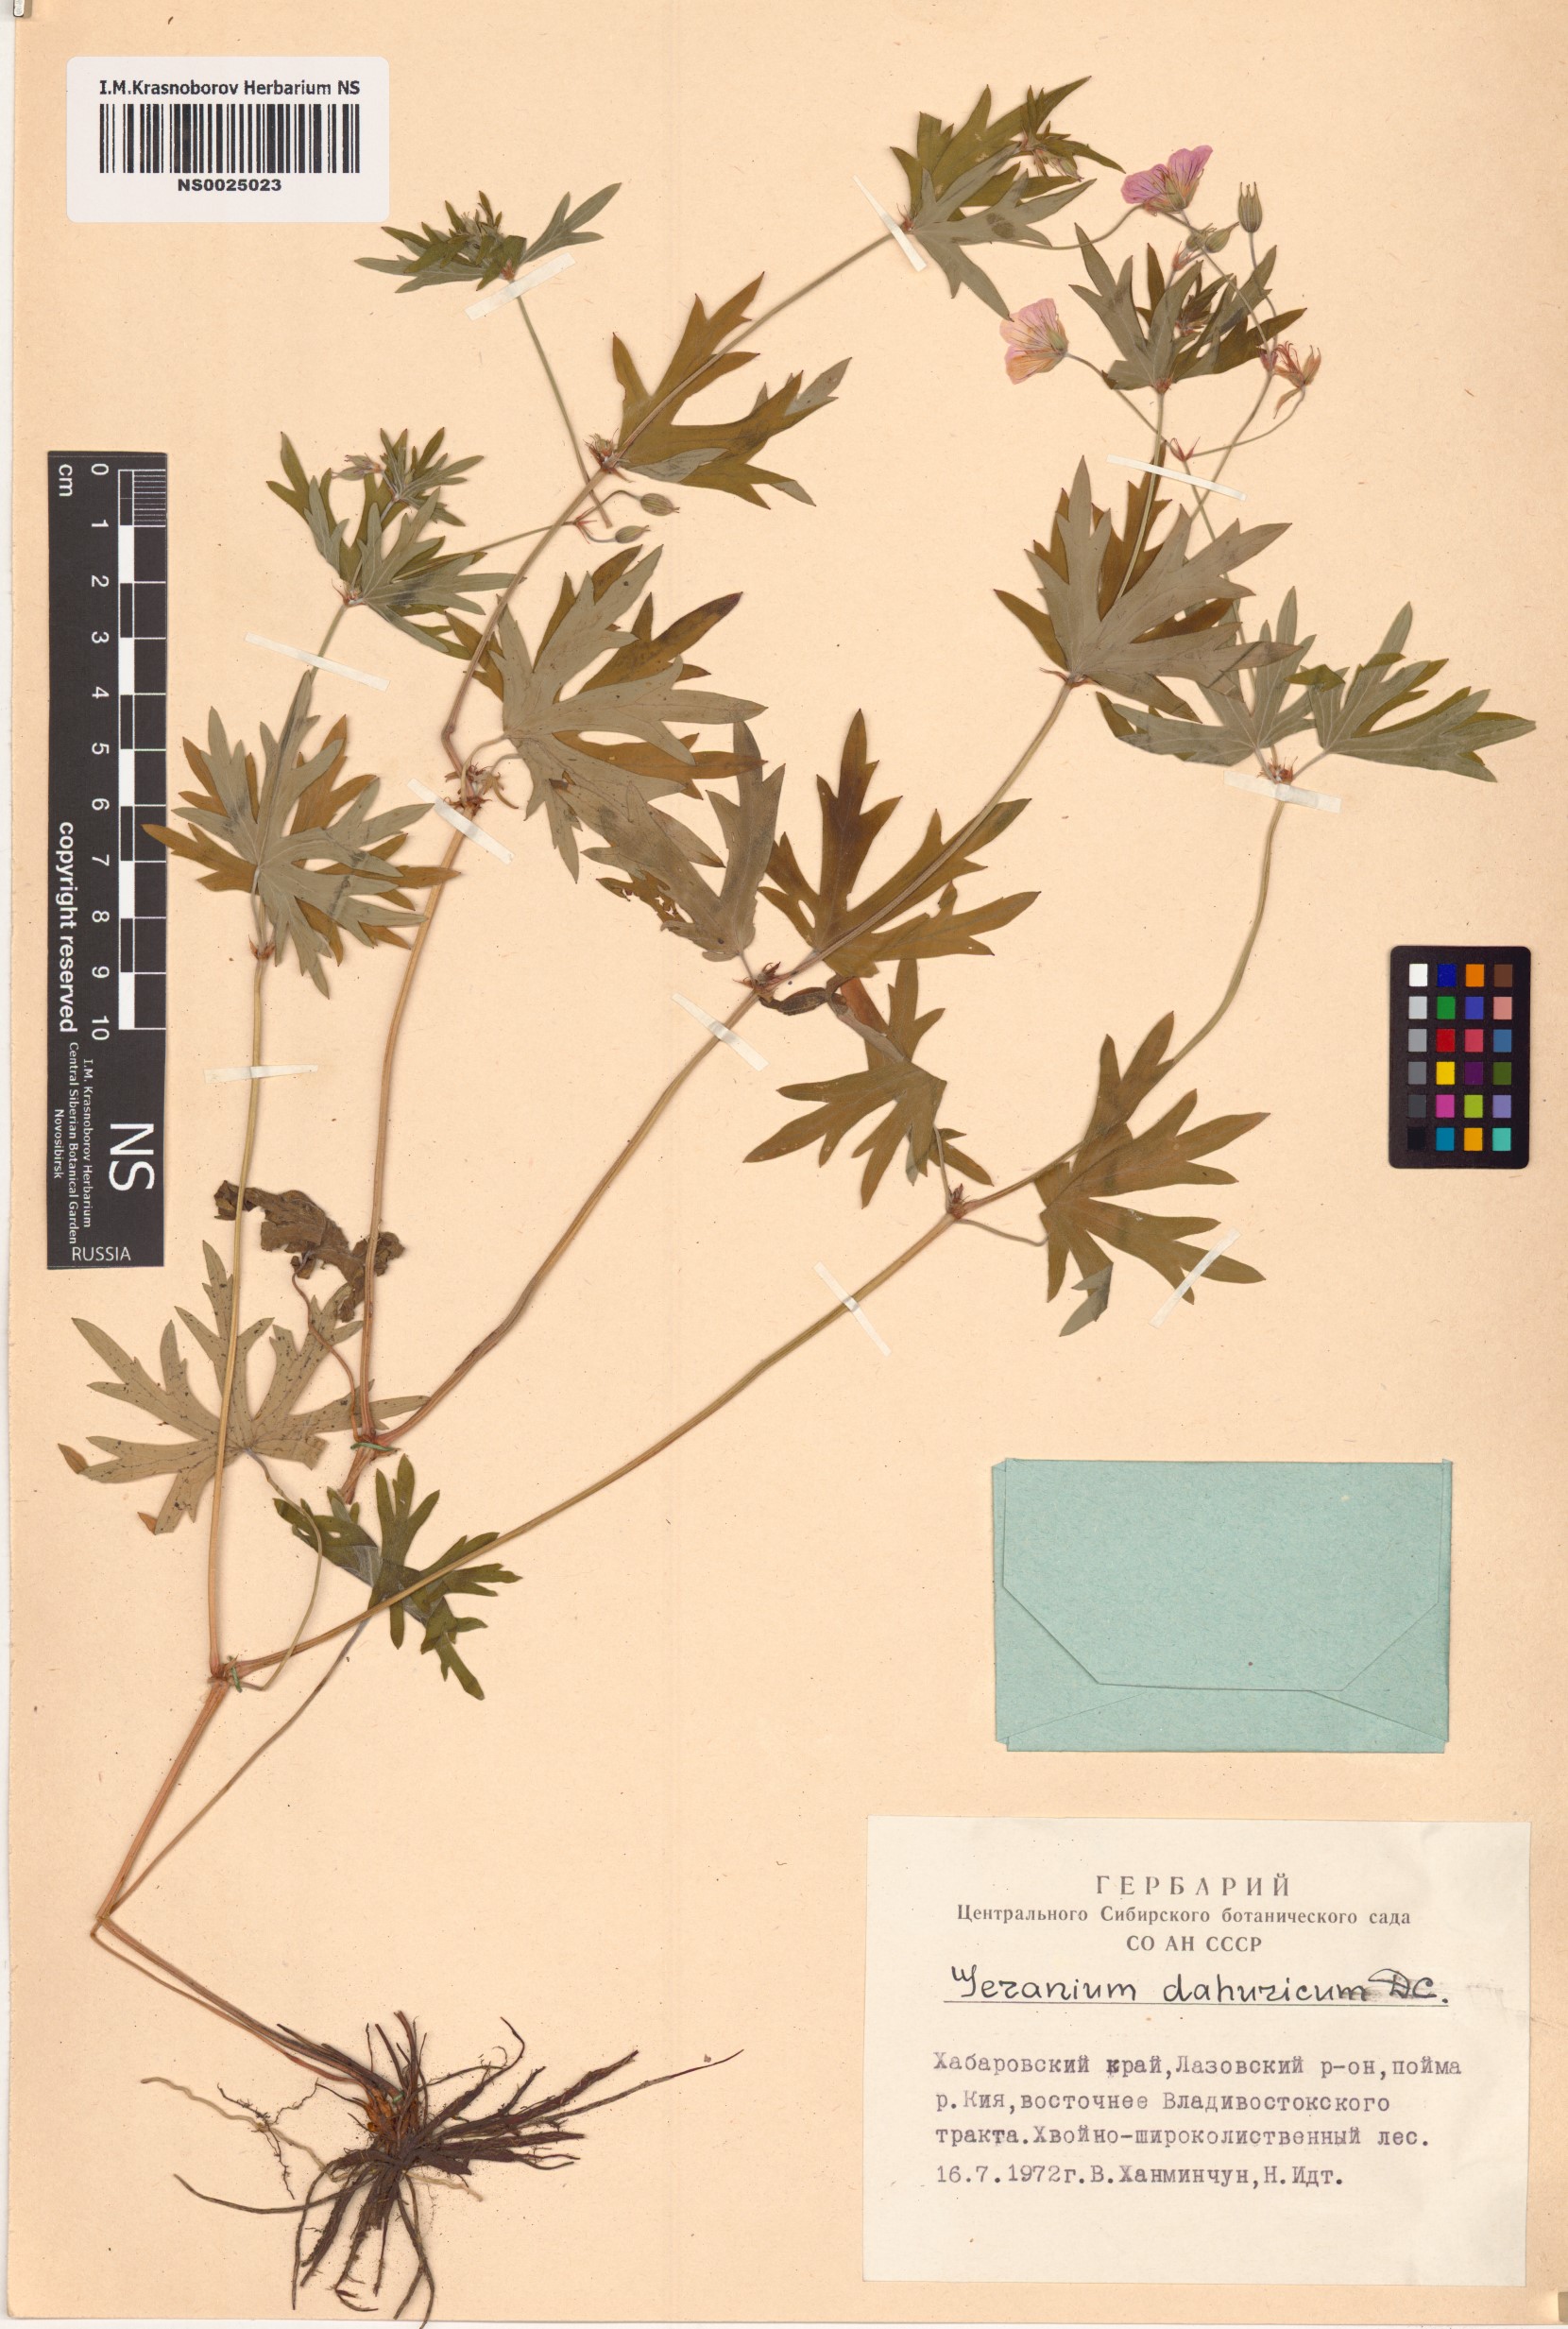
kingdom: Plantae
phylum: Tracheophyta
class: Magnoliopsida
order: Geraniales
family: Geraniaceae
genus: Geranium
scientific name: Geranium dahuricum
